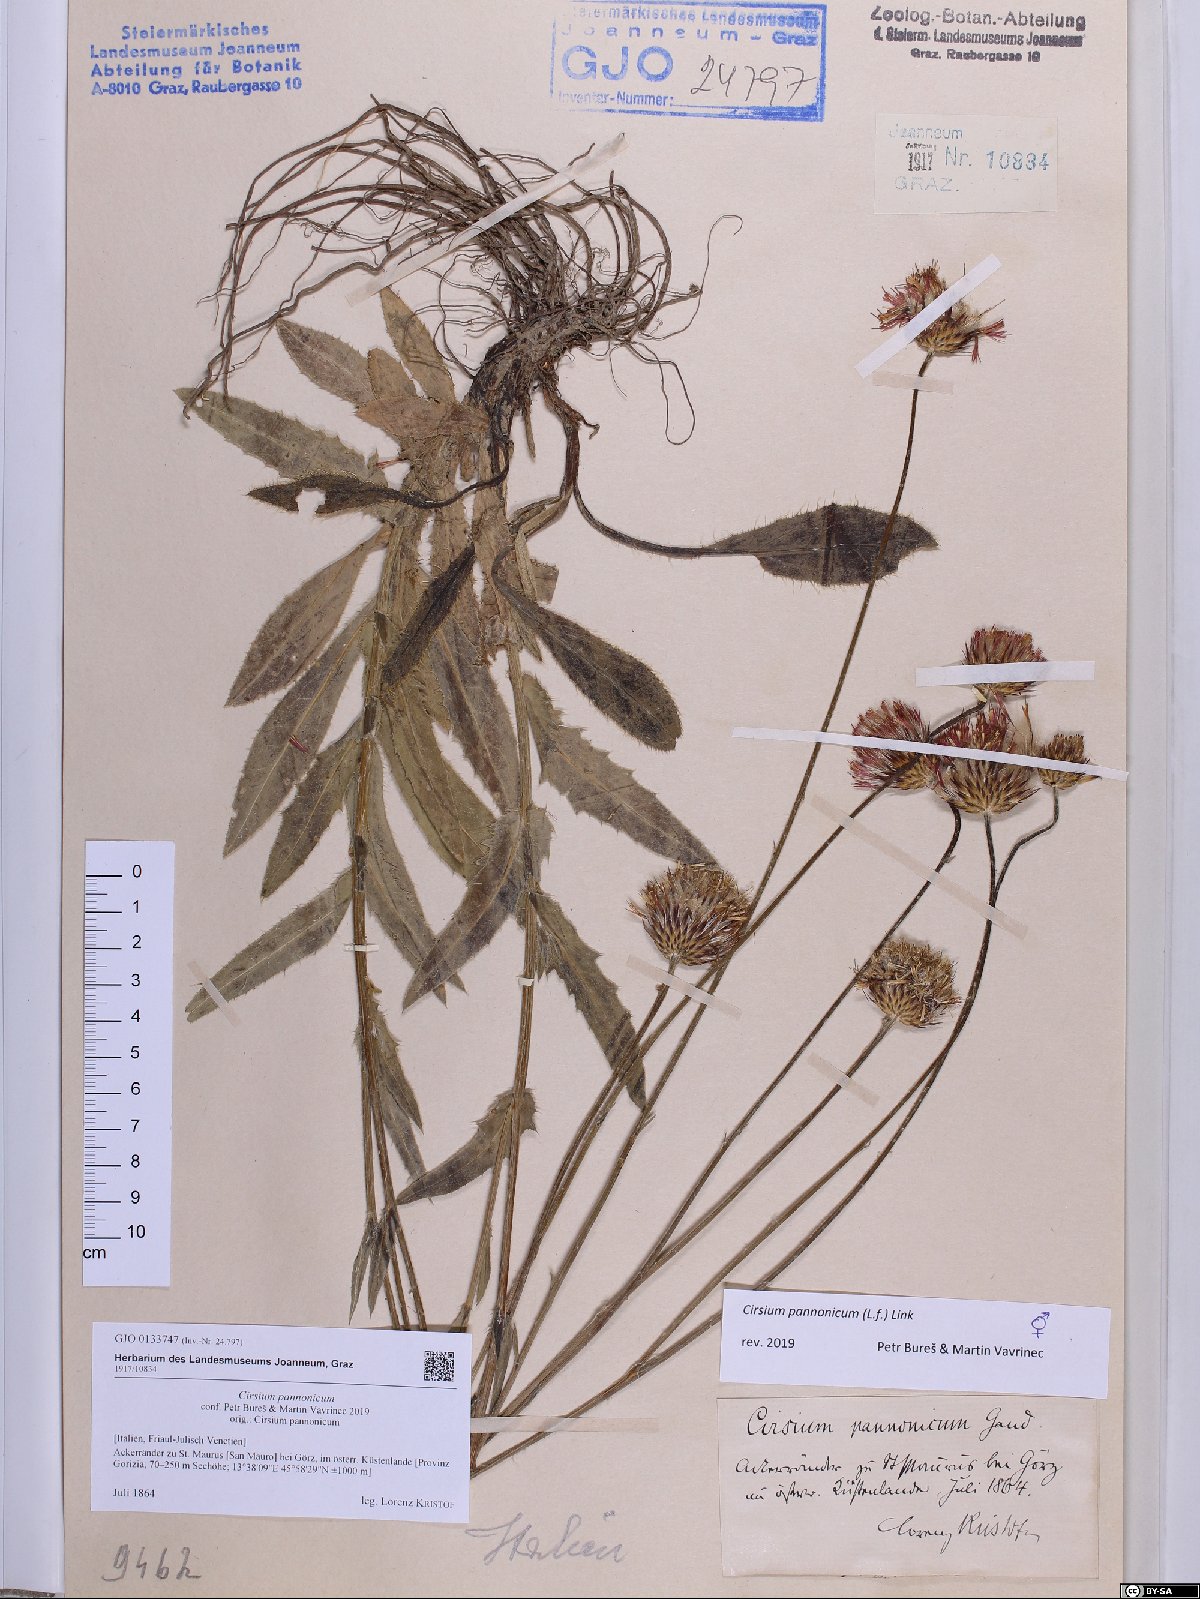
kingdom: Plantae
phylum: Tracheophyta
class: Magnoliopsida
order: Asterales
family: Asteraceae
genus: Cirsium
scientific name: Cirsium pannonicum
